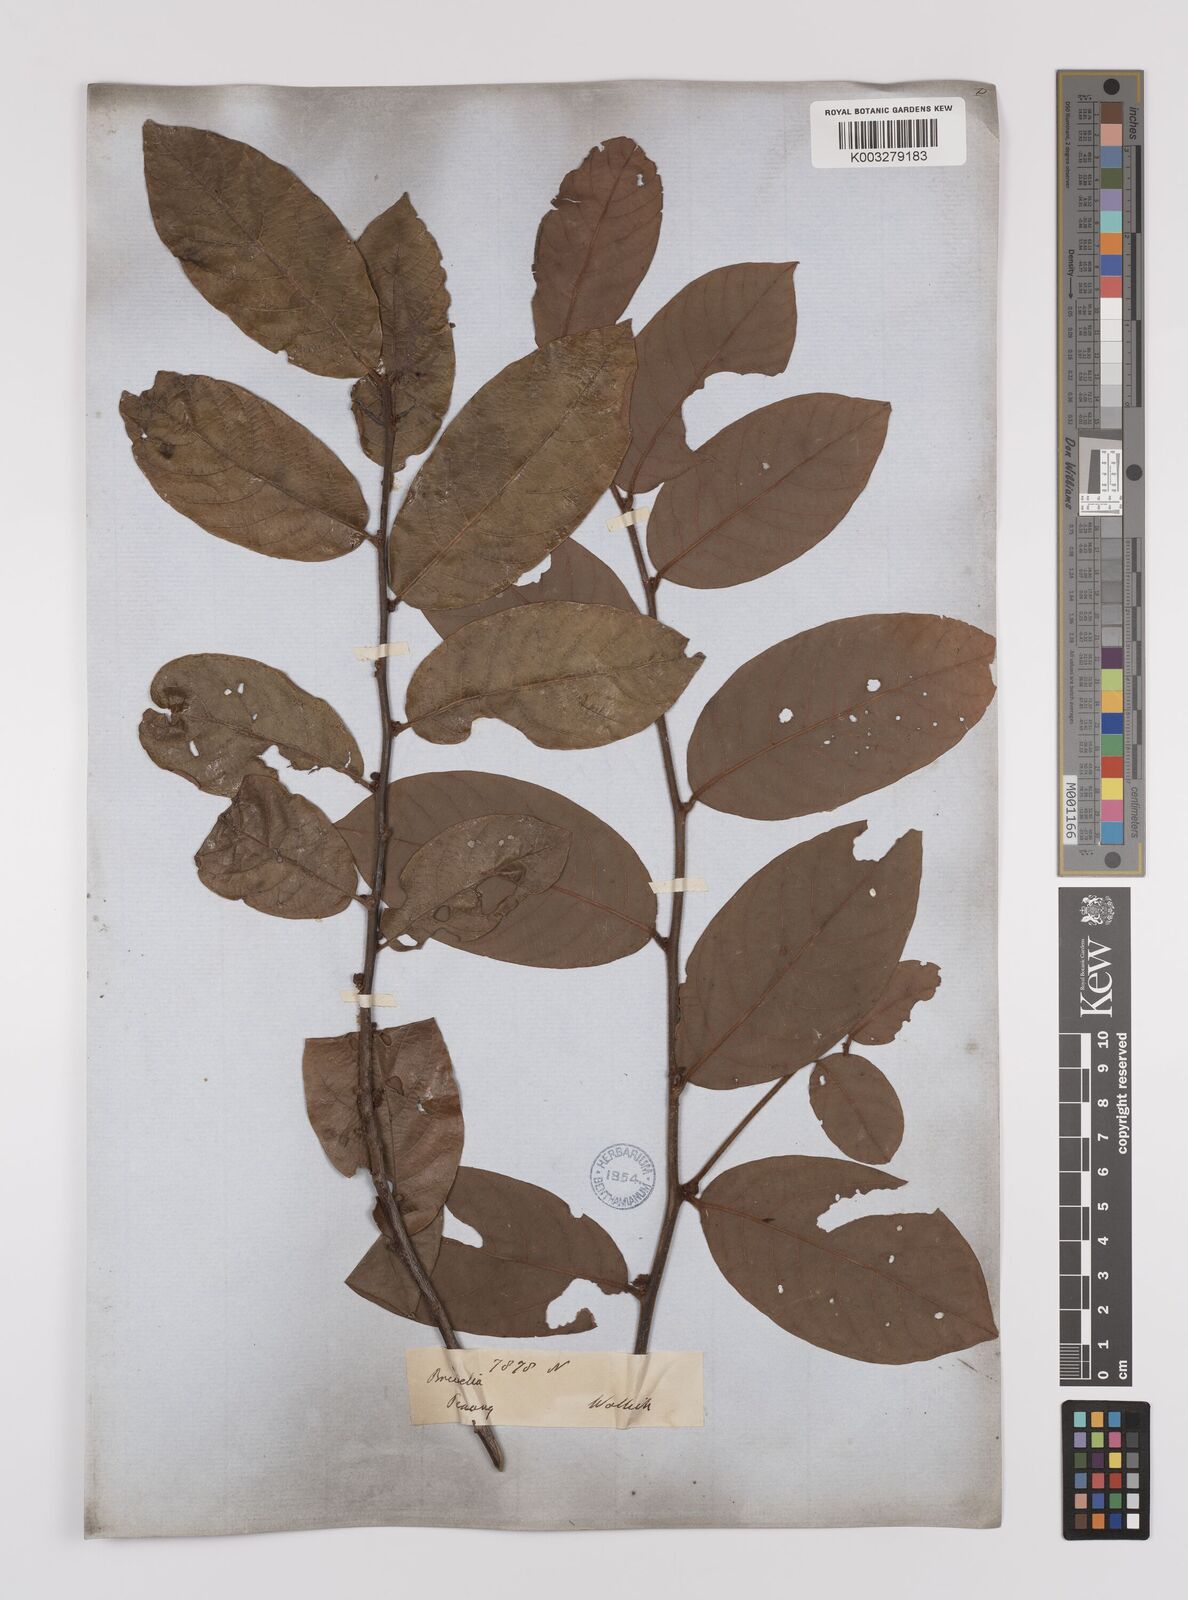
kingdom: Plantae
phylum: Tracheophyta
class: Magnoliopsida
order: Laurales
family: Lauraceae
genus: Litsea
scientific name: Litsea umbellata
